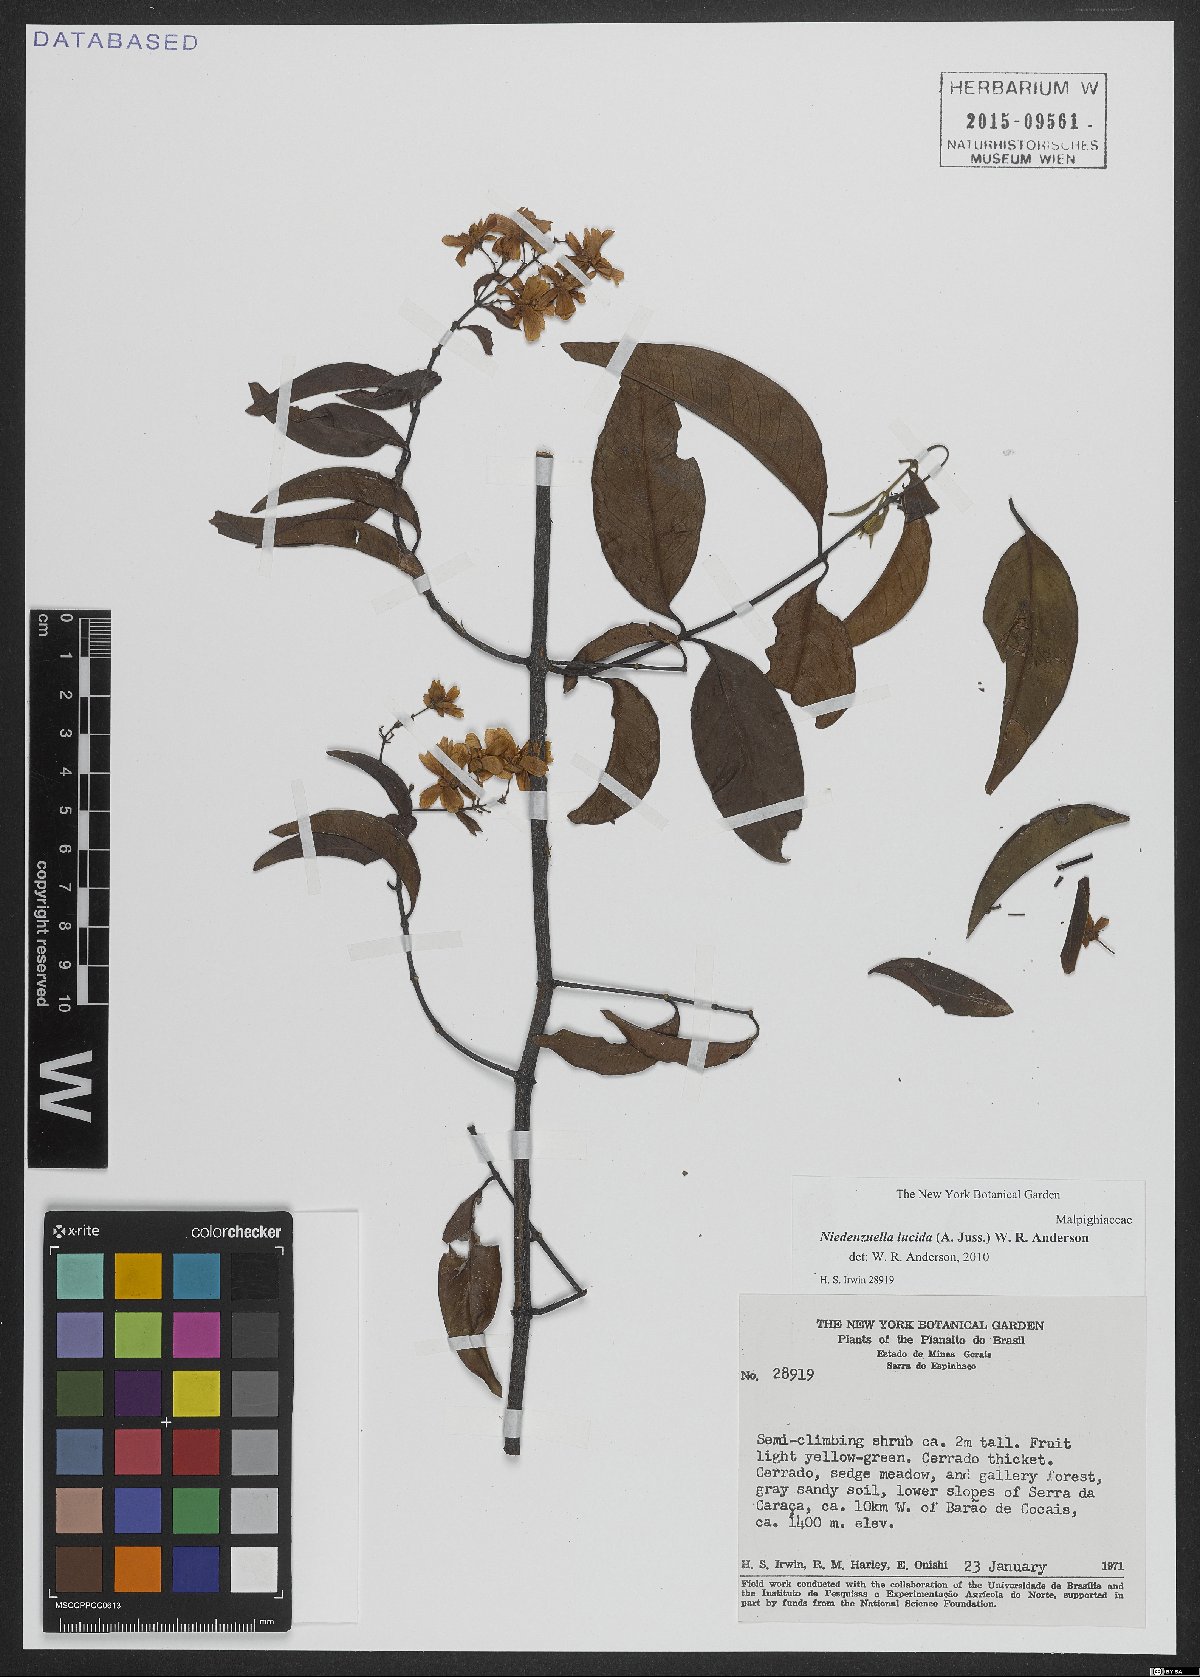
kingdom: Plantae
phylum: Tracheophyta
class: Magnoliopsida
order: Malpighiales
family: Malpighiaceae
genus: Niedenzuella
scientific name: Niedenzuella lucida
